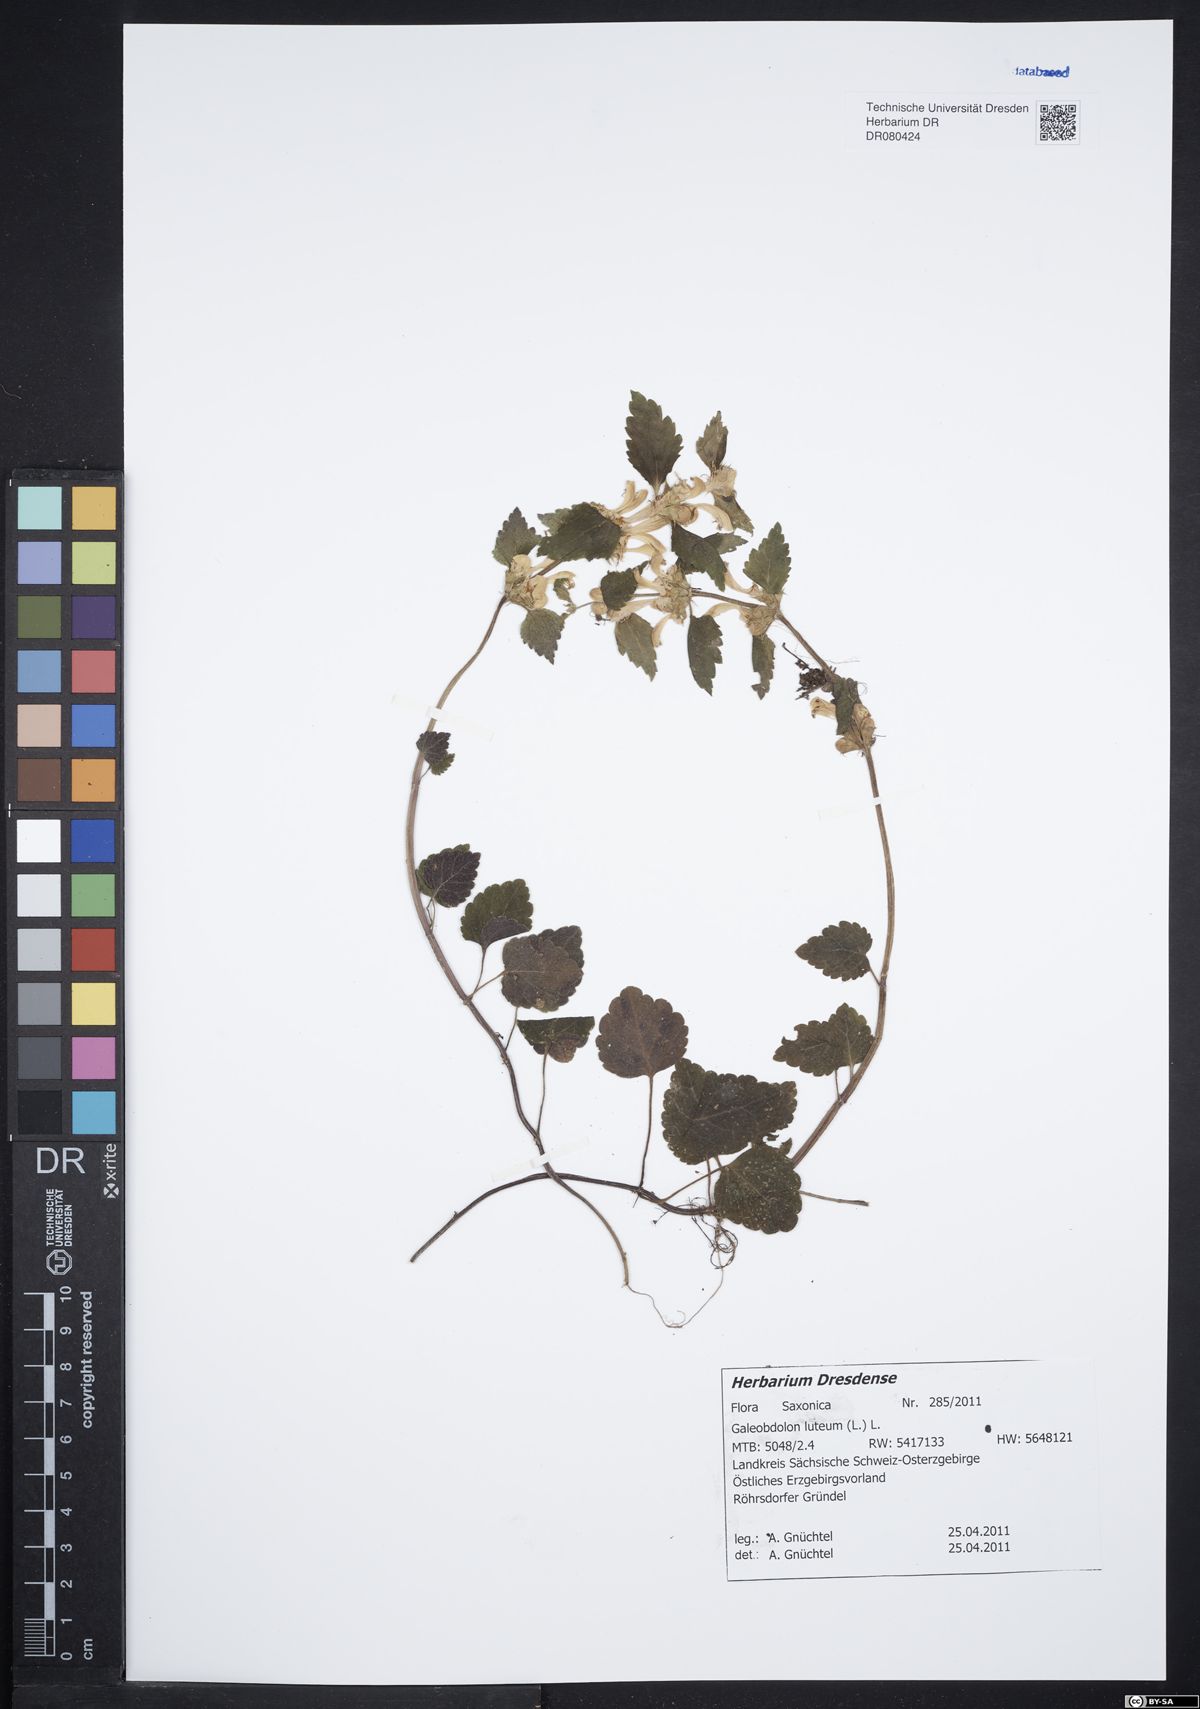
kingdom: Plantae
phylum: Tracheophyta
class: Magnoliopsida
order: Lamiales
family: Lamiaceae
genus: Lamium
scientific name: Lamium galeobdolon
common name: Yellow archangel
